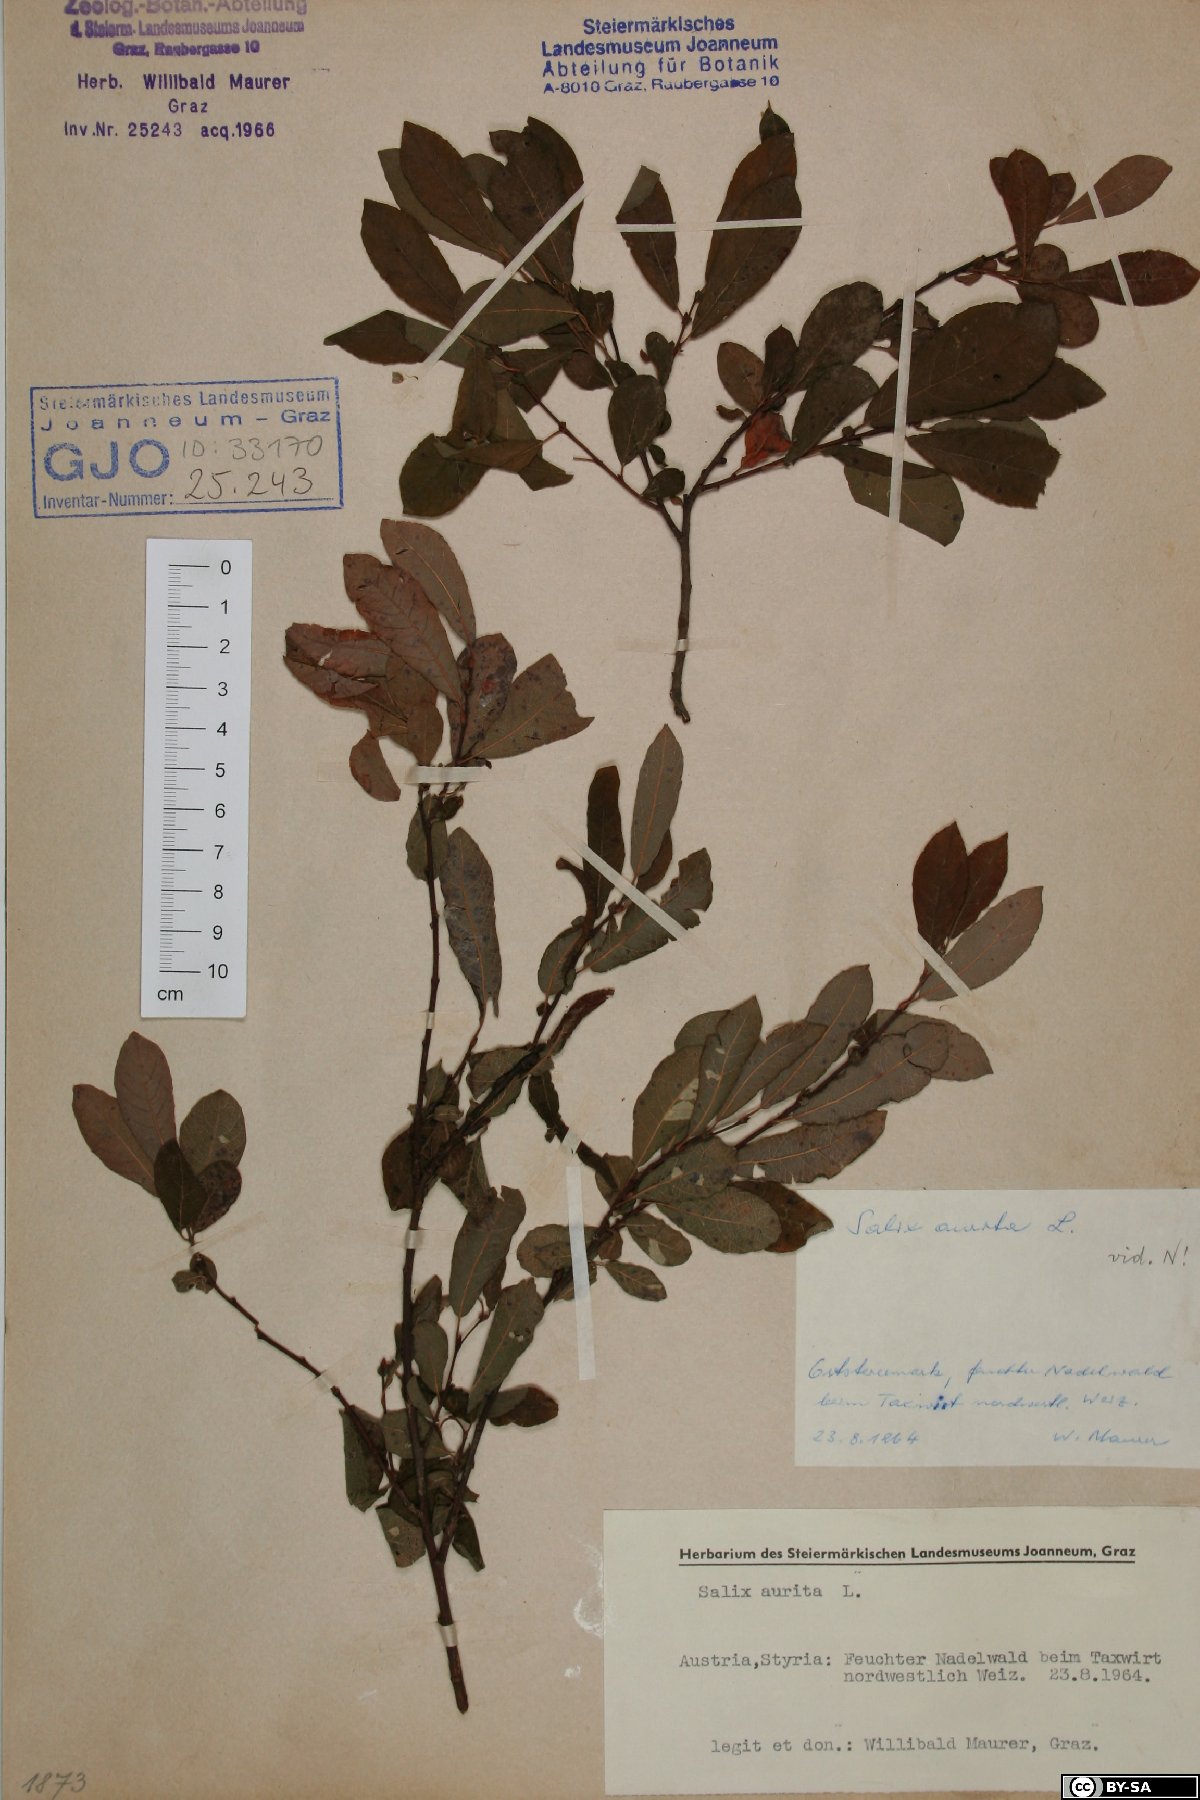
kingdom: Plantae
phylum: Tracheophyta
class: Magnoliopsida
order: Malpighiales
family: Salicaceae
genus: Salix
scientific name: Salix aurita
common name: Eared willow
